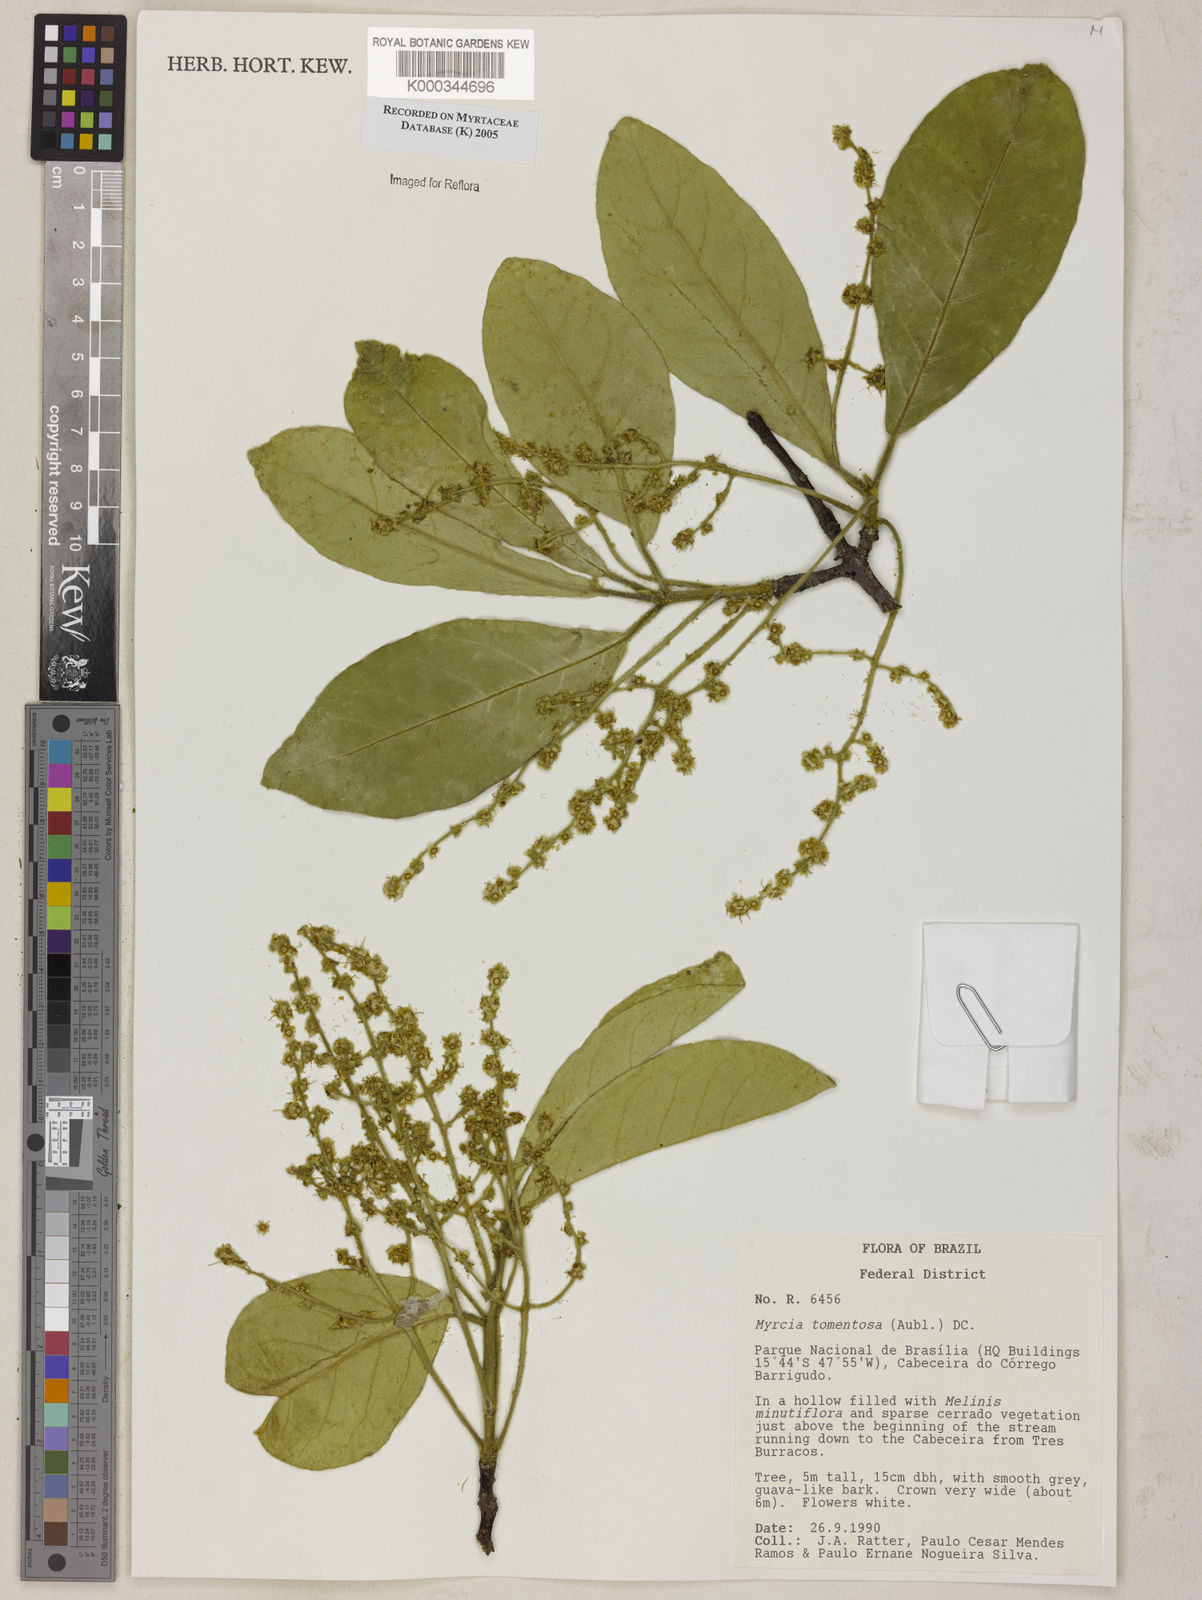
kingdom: Plantae
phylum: Tracheophyta
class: Magnoliopsida
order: Myrtales
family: Myrtaceae
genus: Myrcia
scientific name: Myrcia tomentosa
